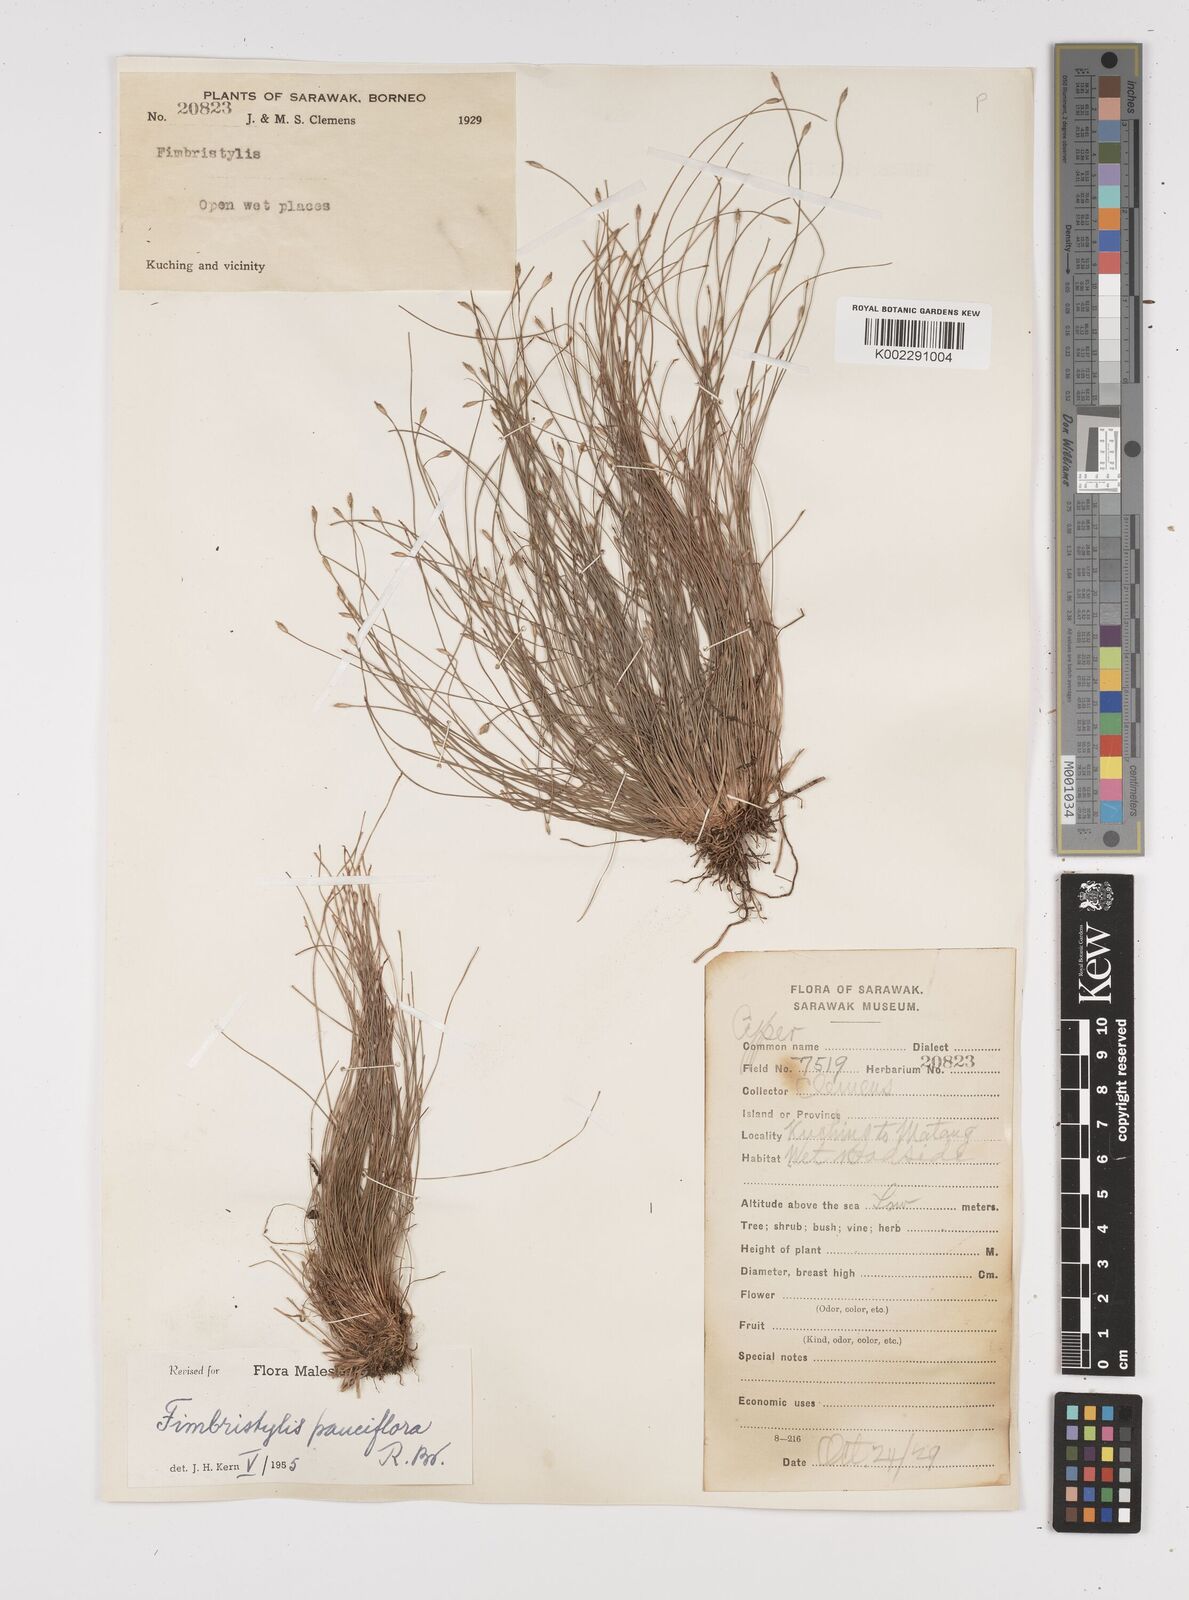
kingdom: Plantae
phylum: Tracheophyta
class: Liliopsida
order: Poales
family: Cyperaceae
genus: Fimbristylis
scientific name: Fimbristylis pauciflora
